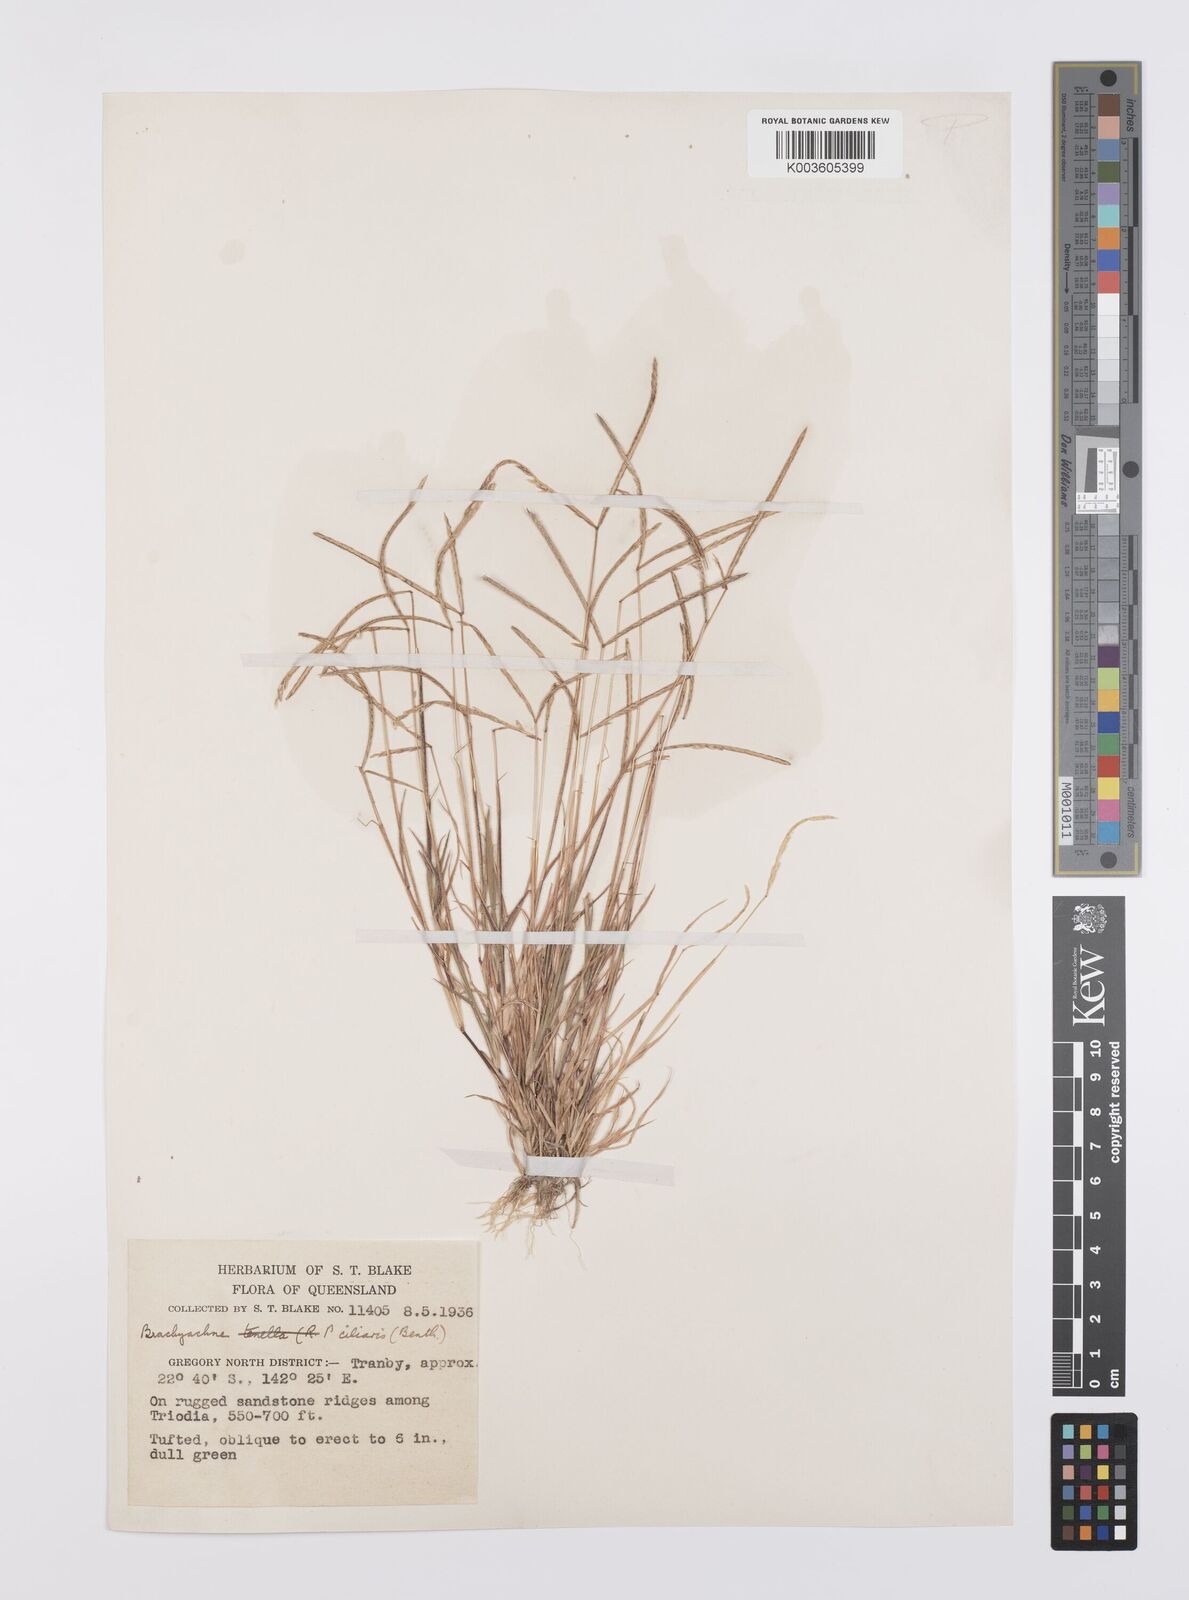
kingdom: Plantae
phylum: Tracheophyta
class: Liliopsida
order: Poales
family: Poaceae
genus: Cynodon
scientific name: Cynodon simonii
